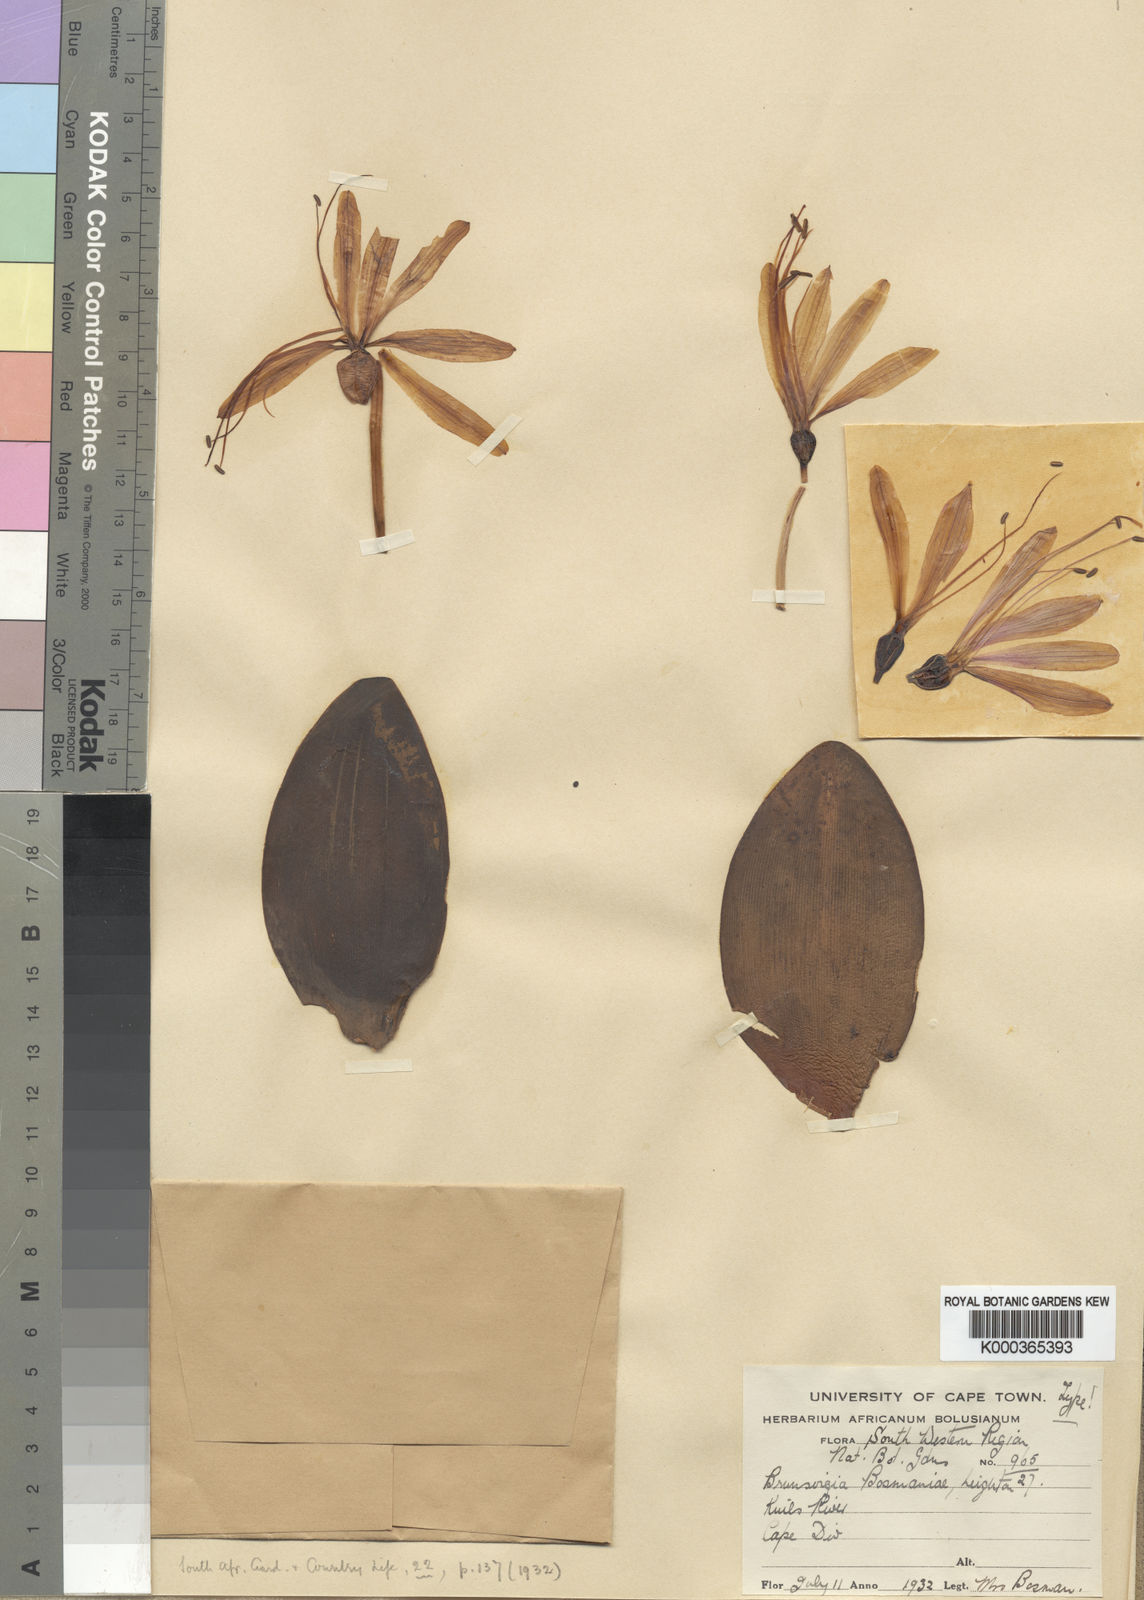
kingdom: Plantae
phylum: Tracheophyta
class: Liliopsida
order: Asparagales
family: Amaryllidaceae
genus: Brunsvigia
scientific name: Brunsvigia bosmaniae
